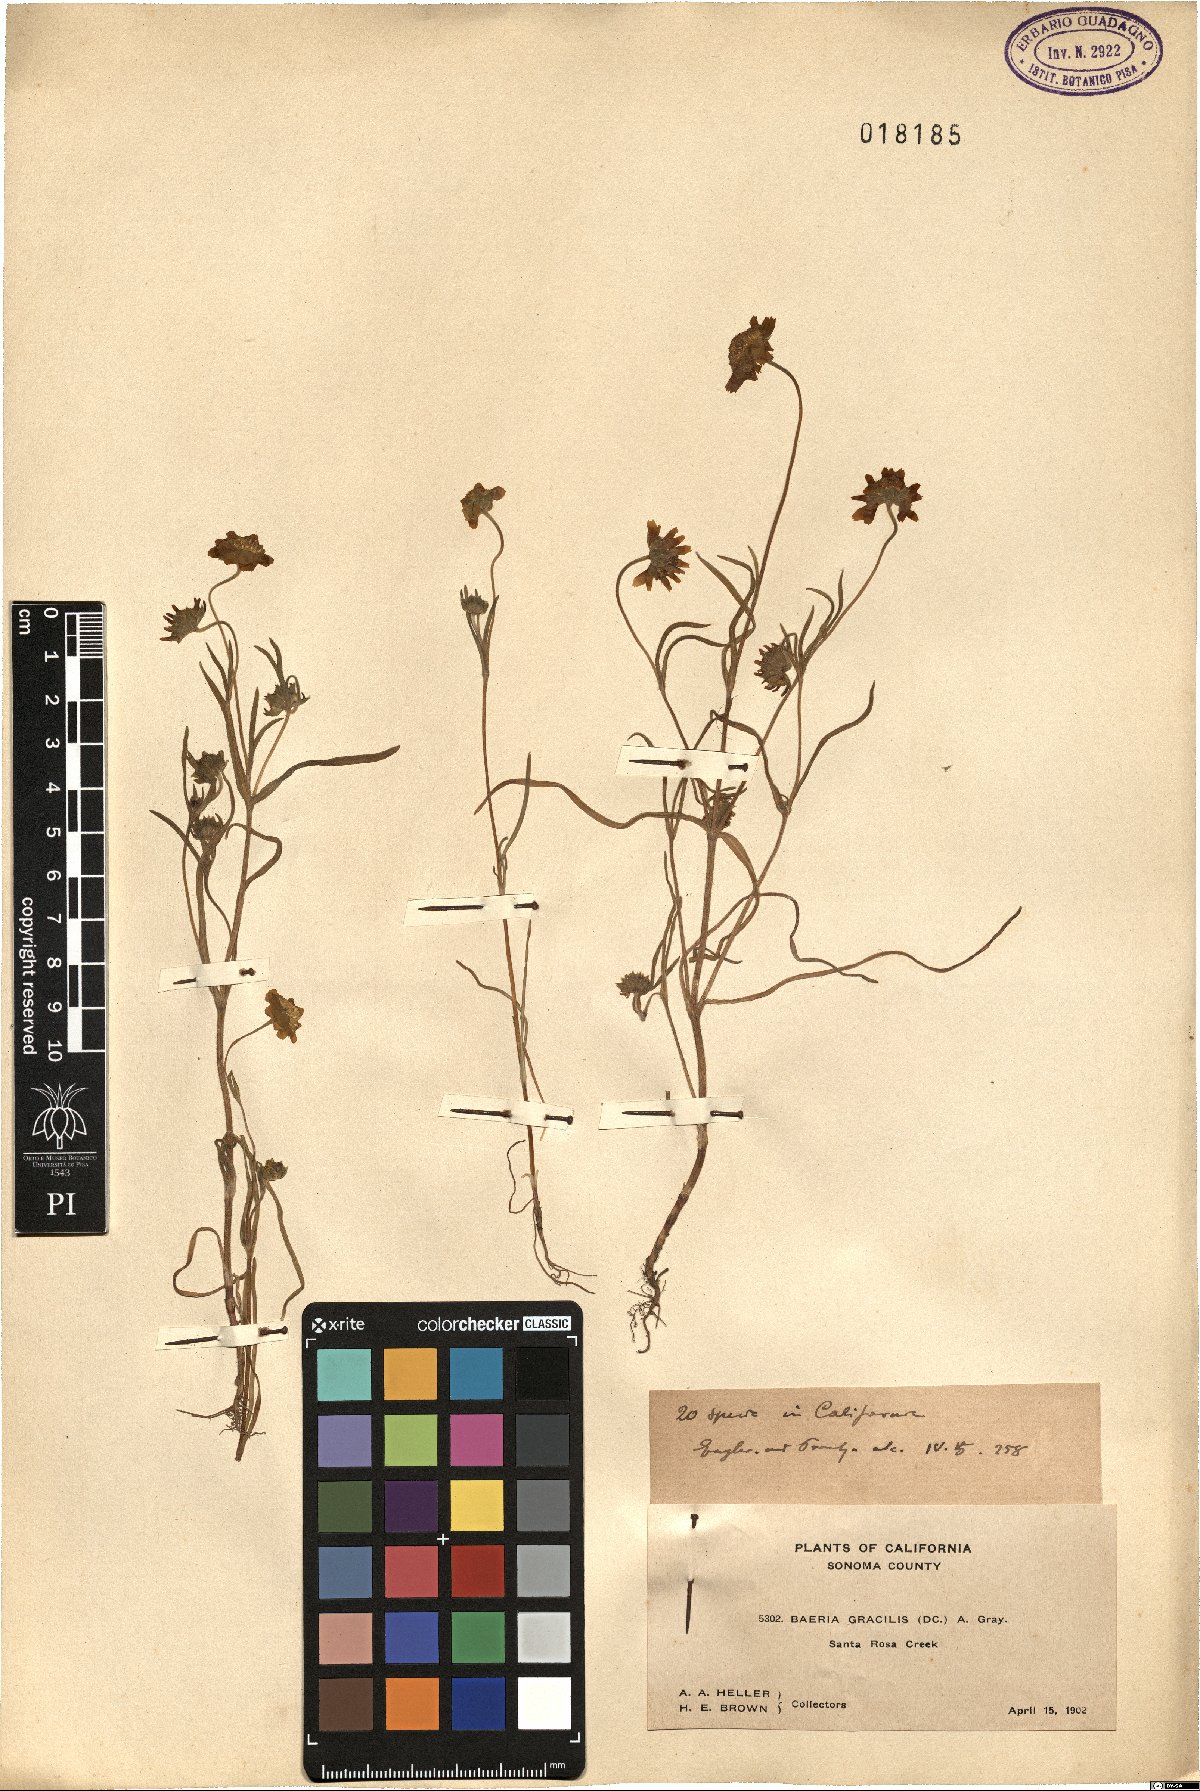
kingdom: Plantae
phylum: Tracheophyta
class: Magnoliopsida
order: Asterales
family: Asteraceae
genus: Lasthenia
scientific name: Lasthenia gracilis
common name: Common goldfields
